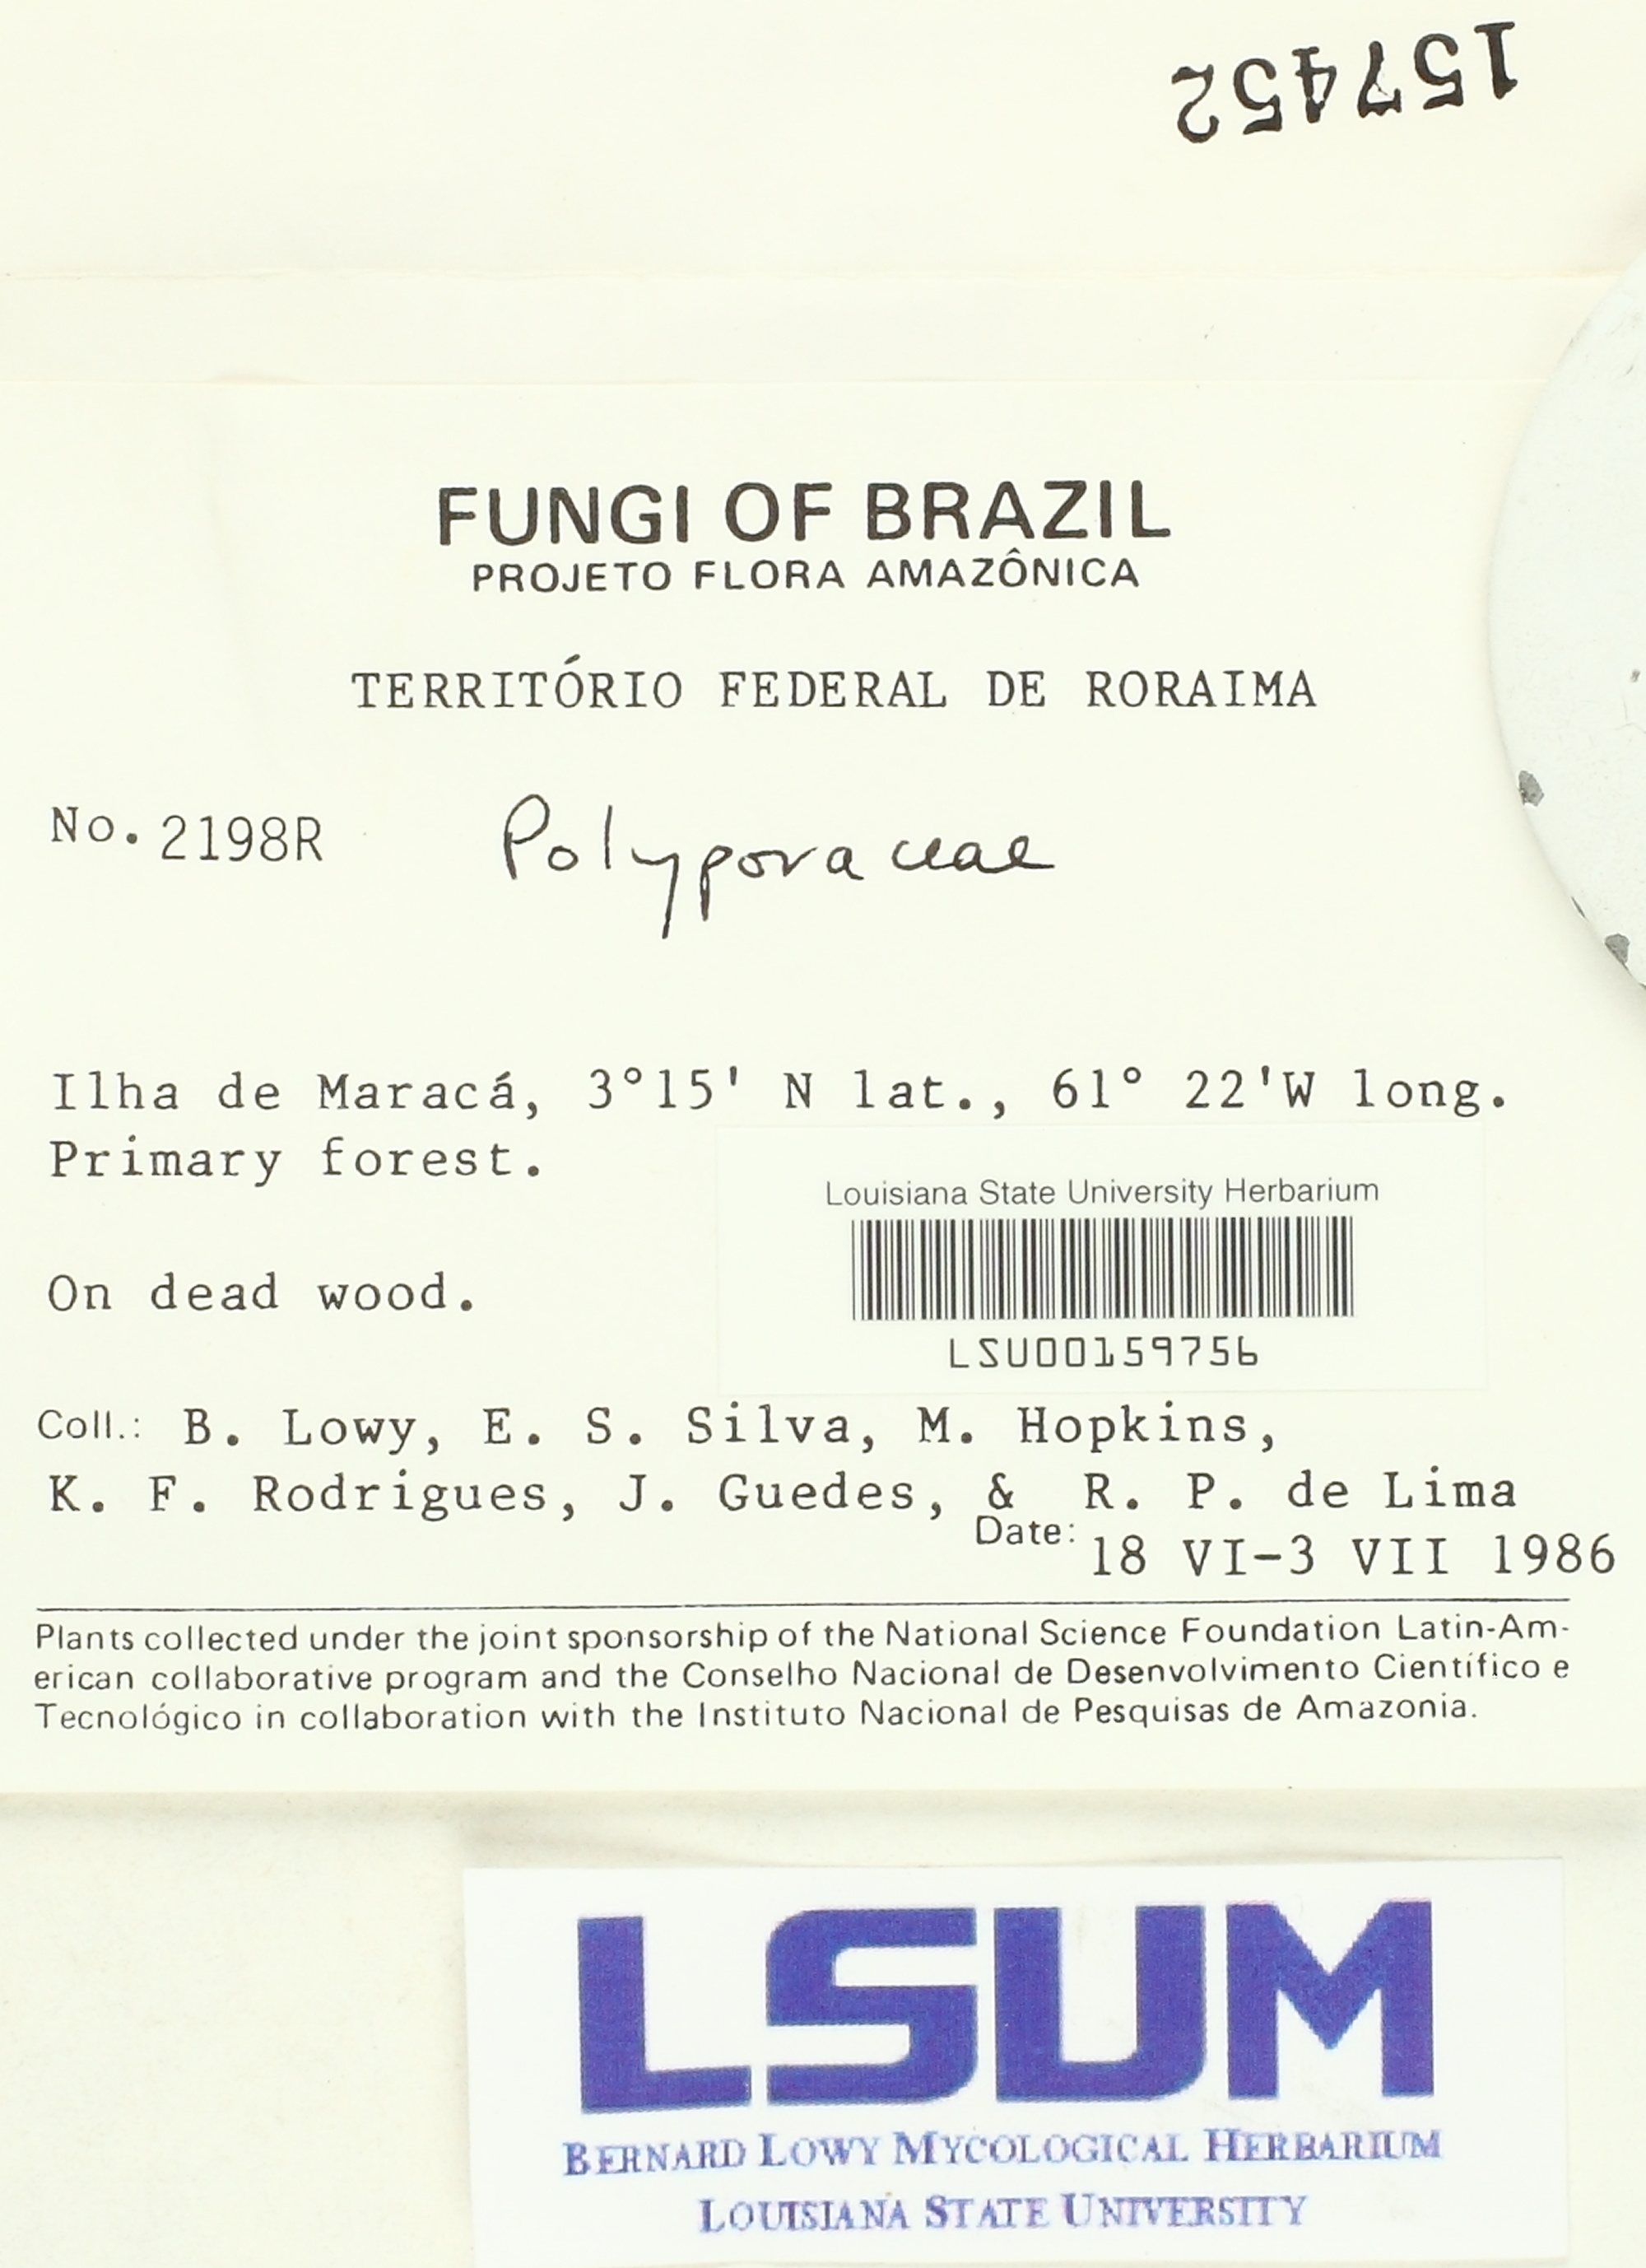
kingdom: Fungi
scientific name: Fungi
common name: Fungi
